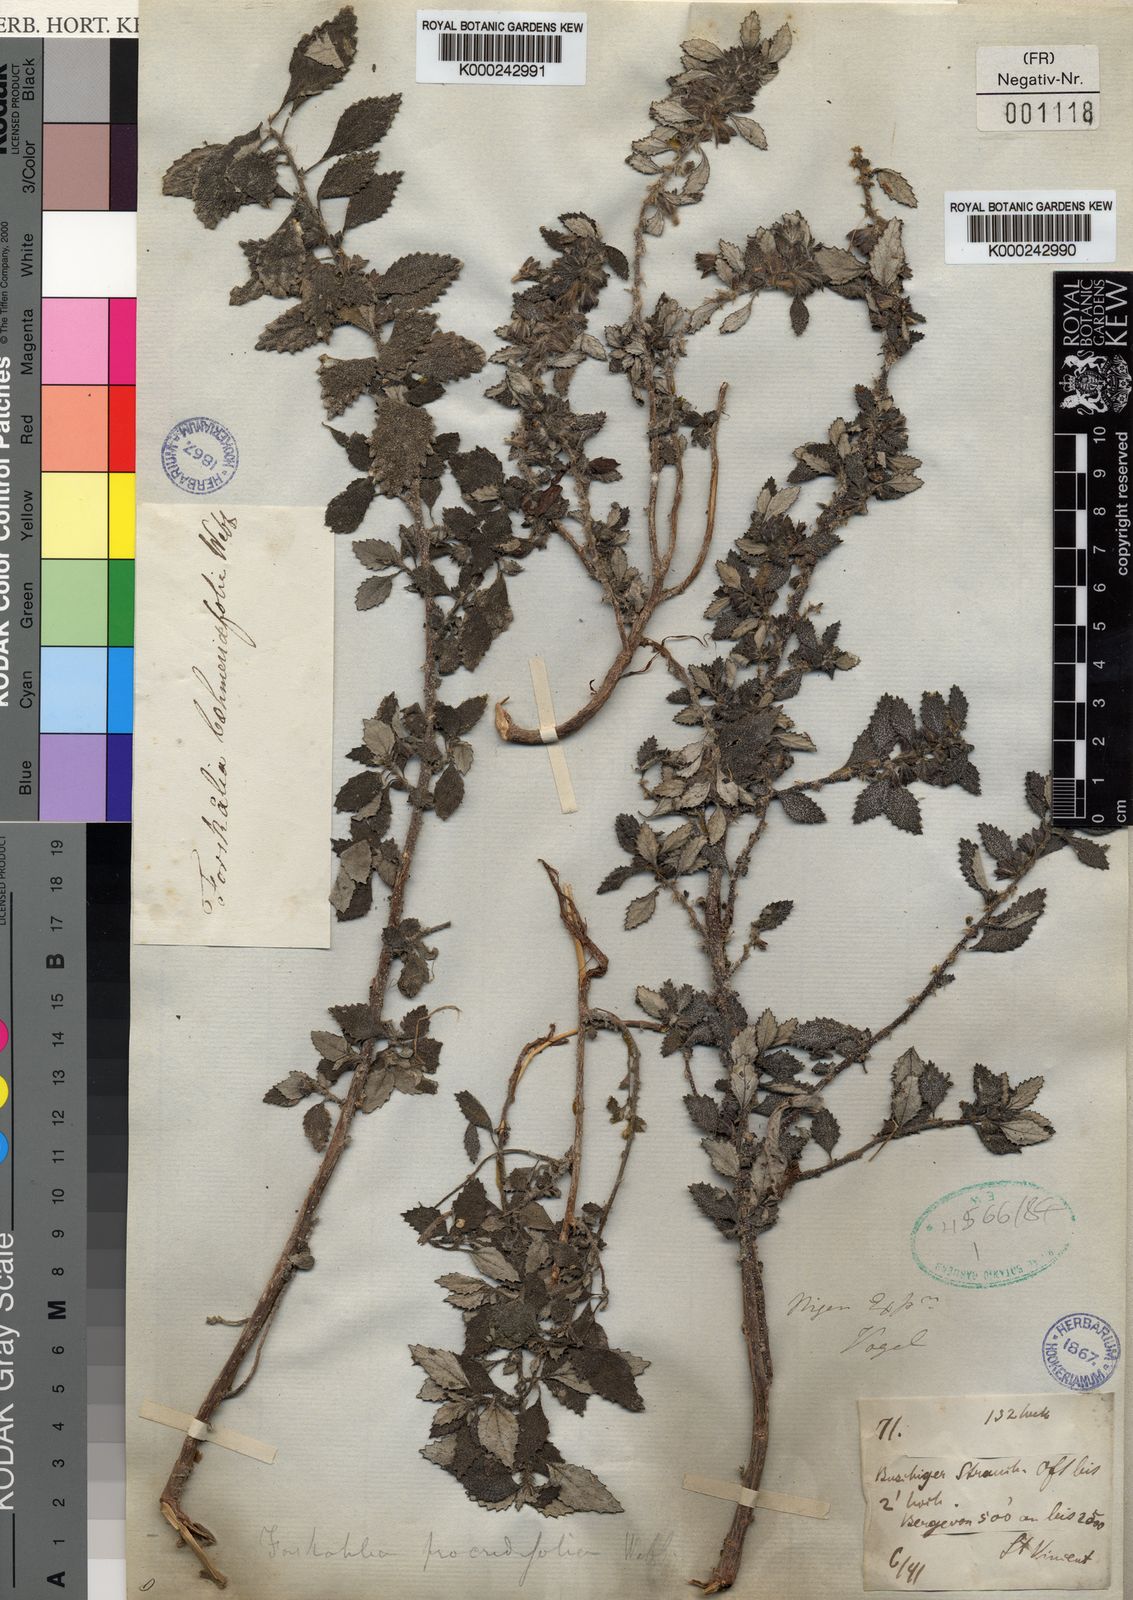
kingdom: Plantae
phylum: Tracheophyta
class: Magnoliopsida
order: Rosales
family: Urticaceae
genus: Forsskaolea
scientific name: Forsskaolea procridifolia
